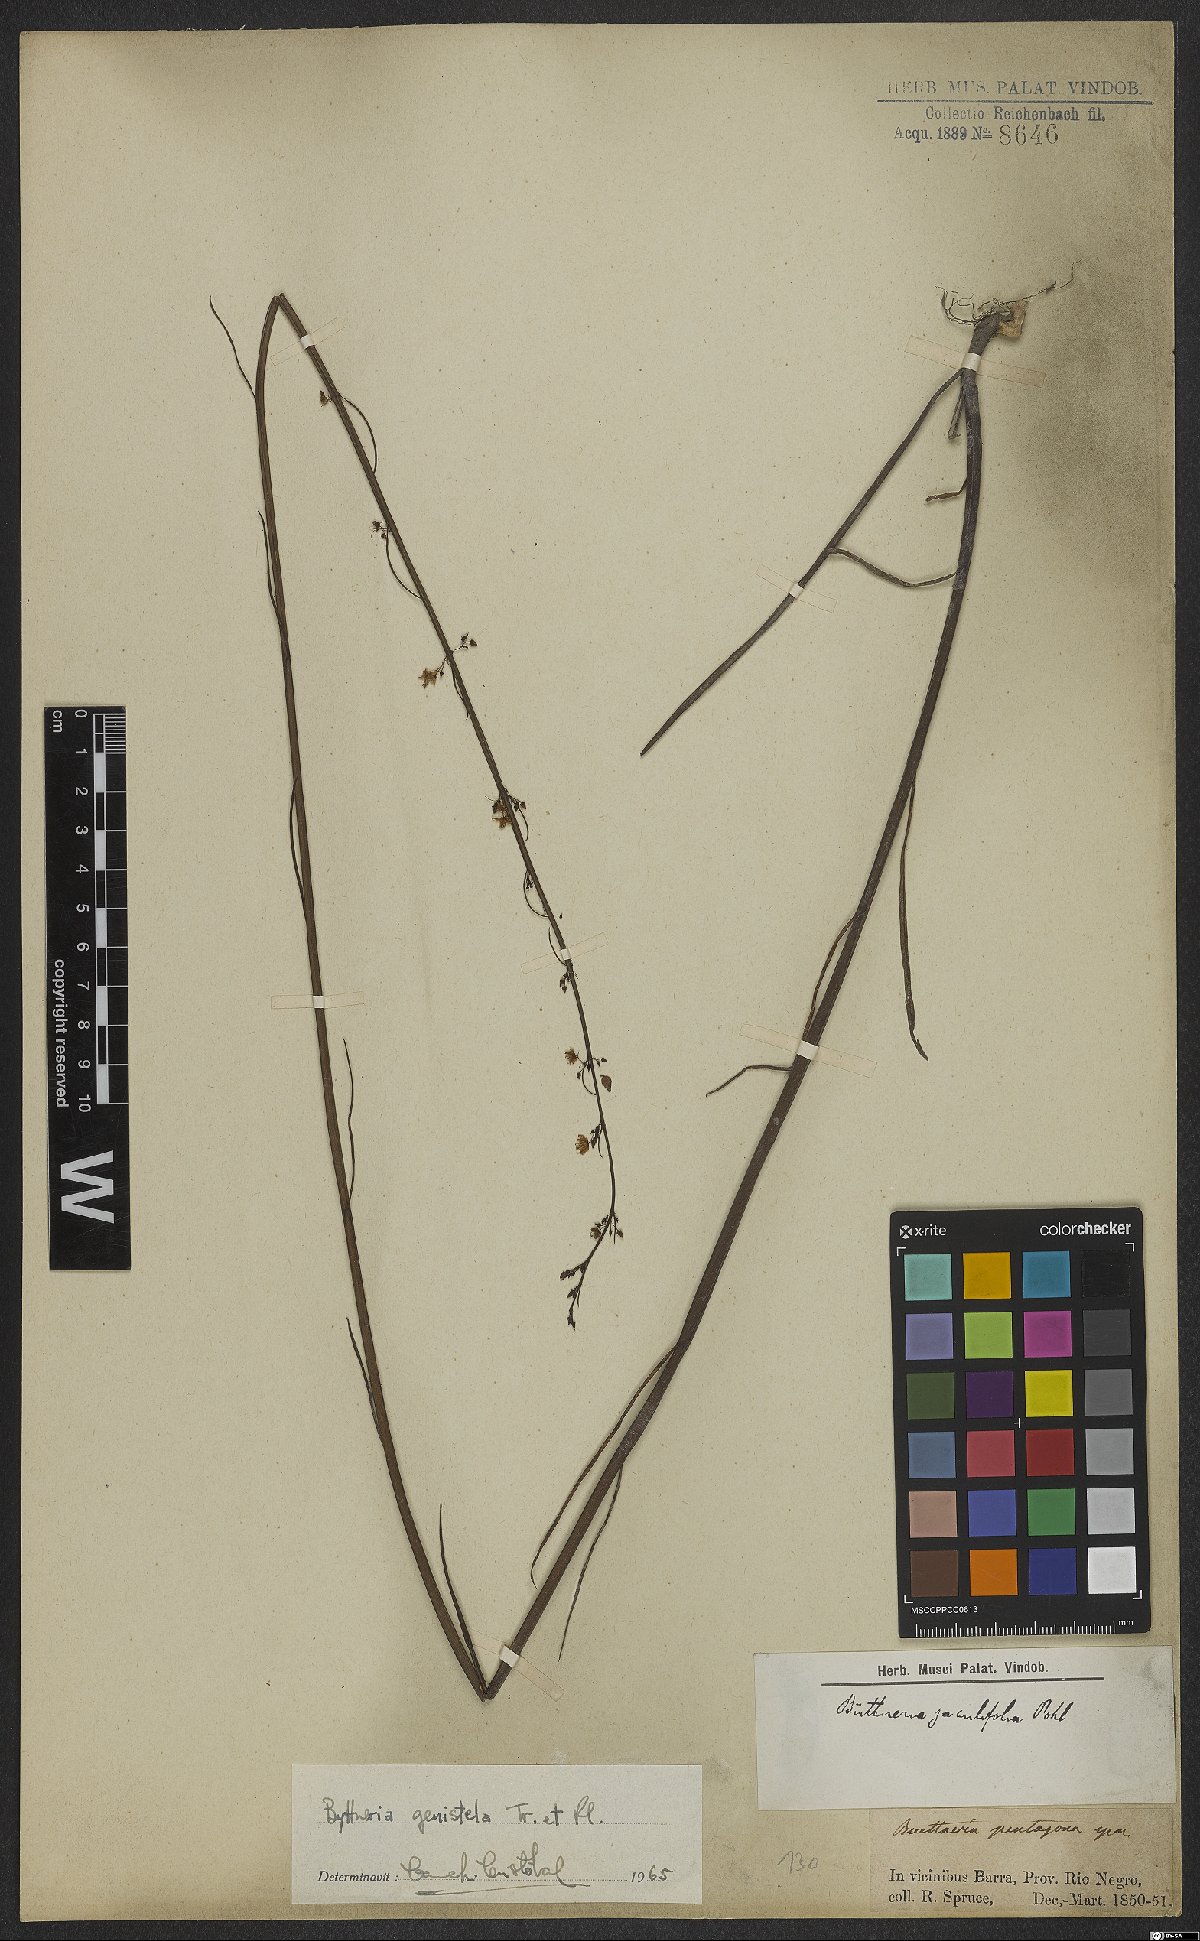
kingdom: Plantae
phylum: Tracheophyta
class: Magnoliopsida
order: Malvales
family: Malvaceae
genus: Byttneria
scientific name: Byttneria genistella
